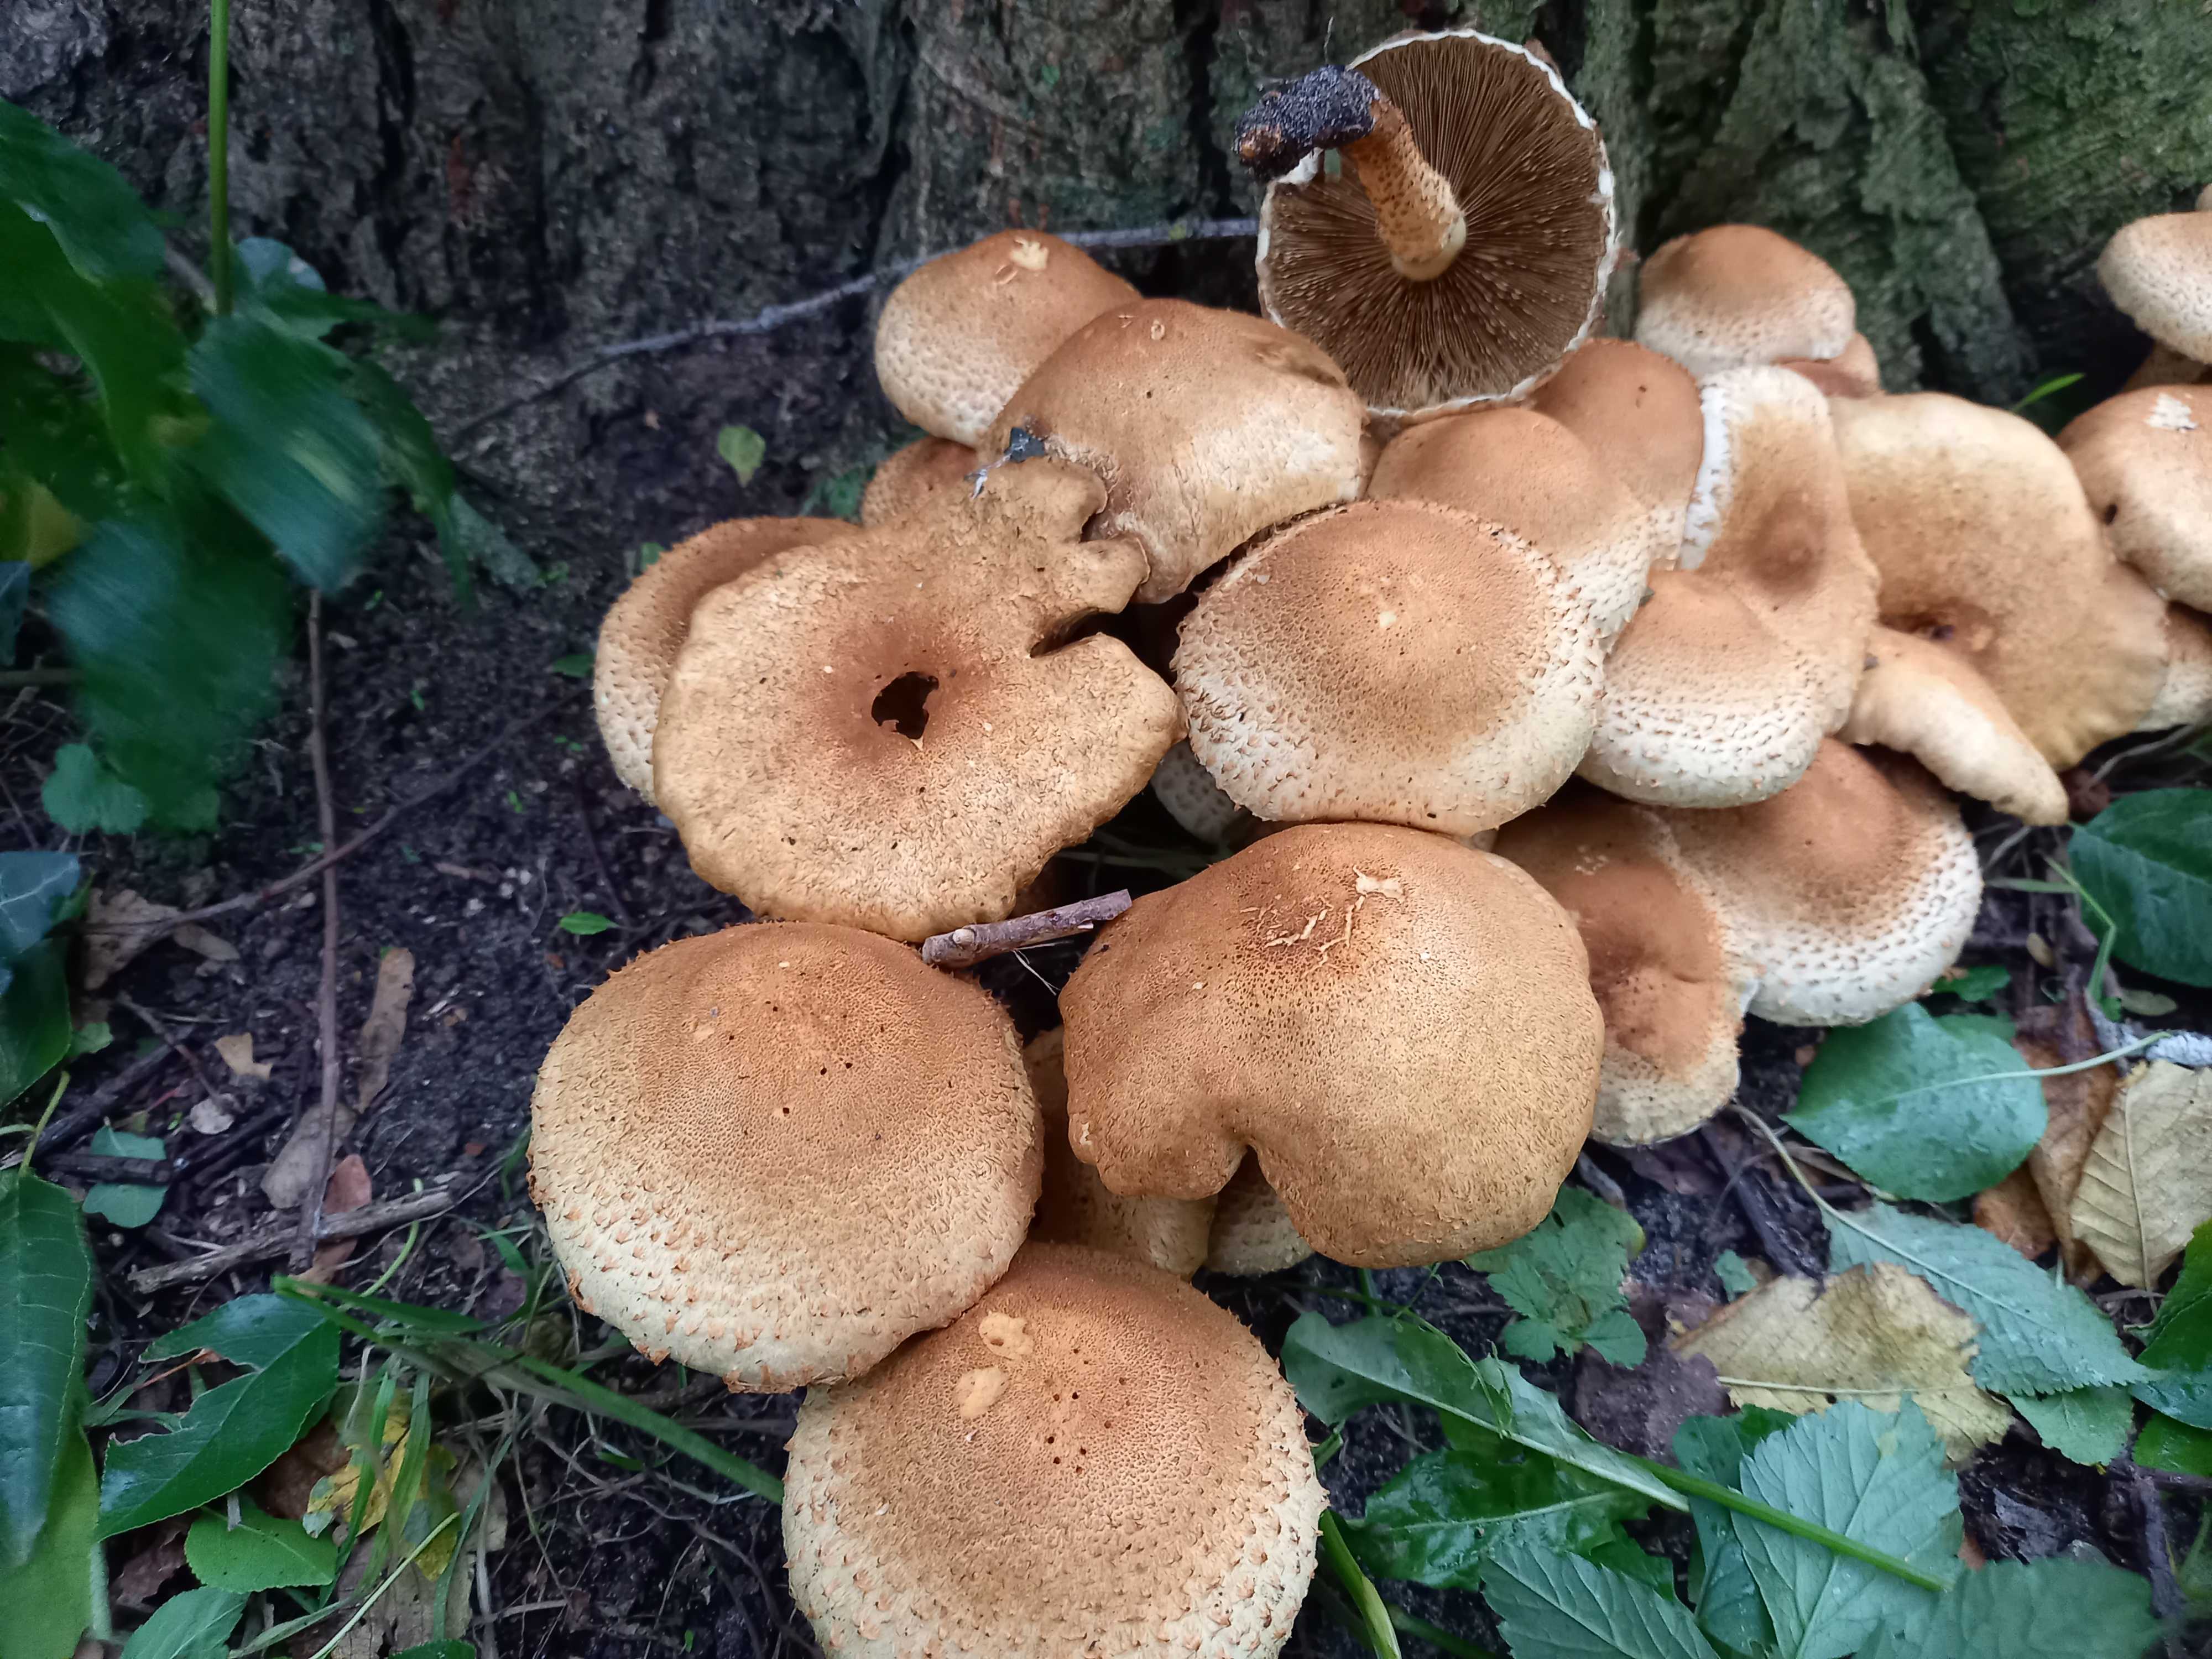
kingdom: Fungi
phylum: Basidiomycota
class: Agaricomycetes
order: Agaricales
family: Strophariaceae
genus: Pholiota
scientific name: Pholiota squarrosa
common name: krumskællet skælhat
